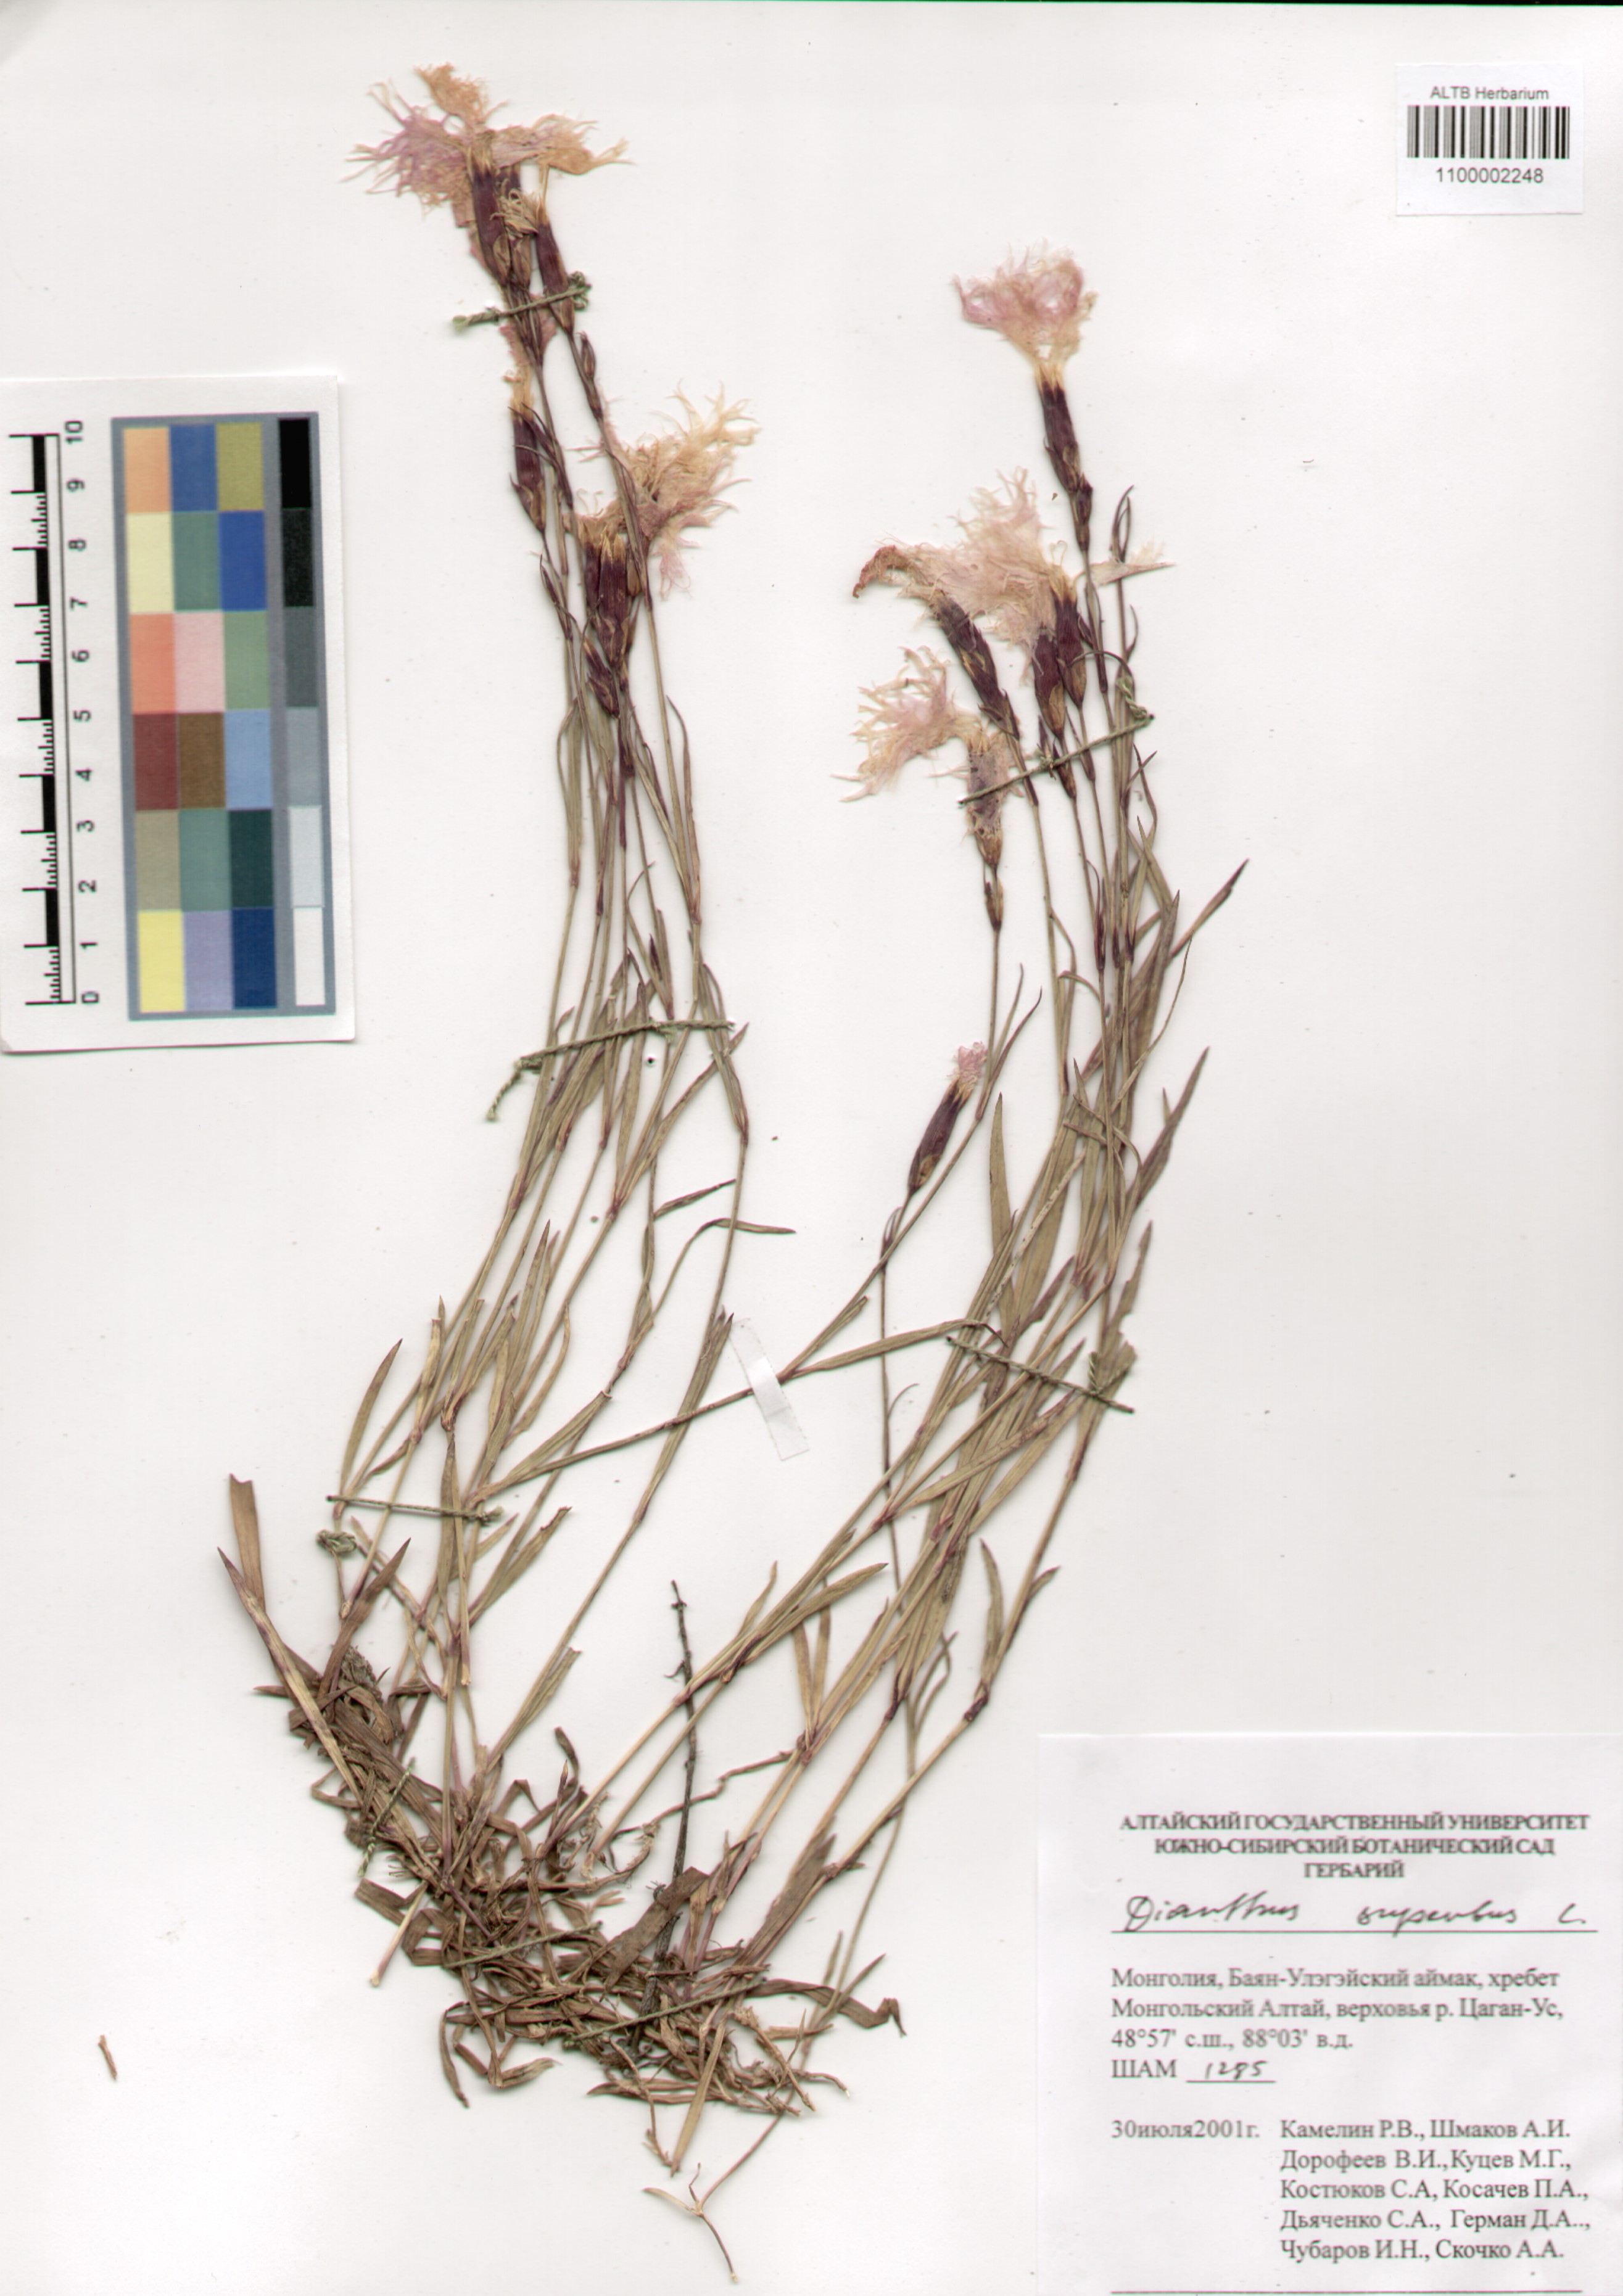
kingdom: Plantae
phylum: Tracheophyta
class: Magnoliopsida
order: Caryophyllales
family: Caryophyllaceae
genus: Dianthus
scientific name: Dianthus superbus
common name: Fringed pink
